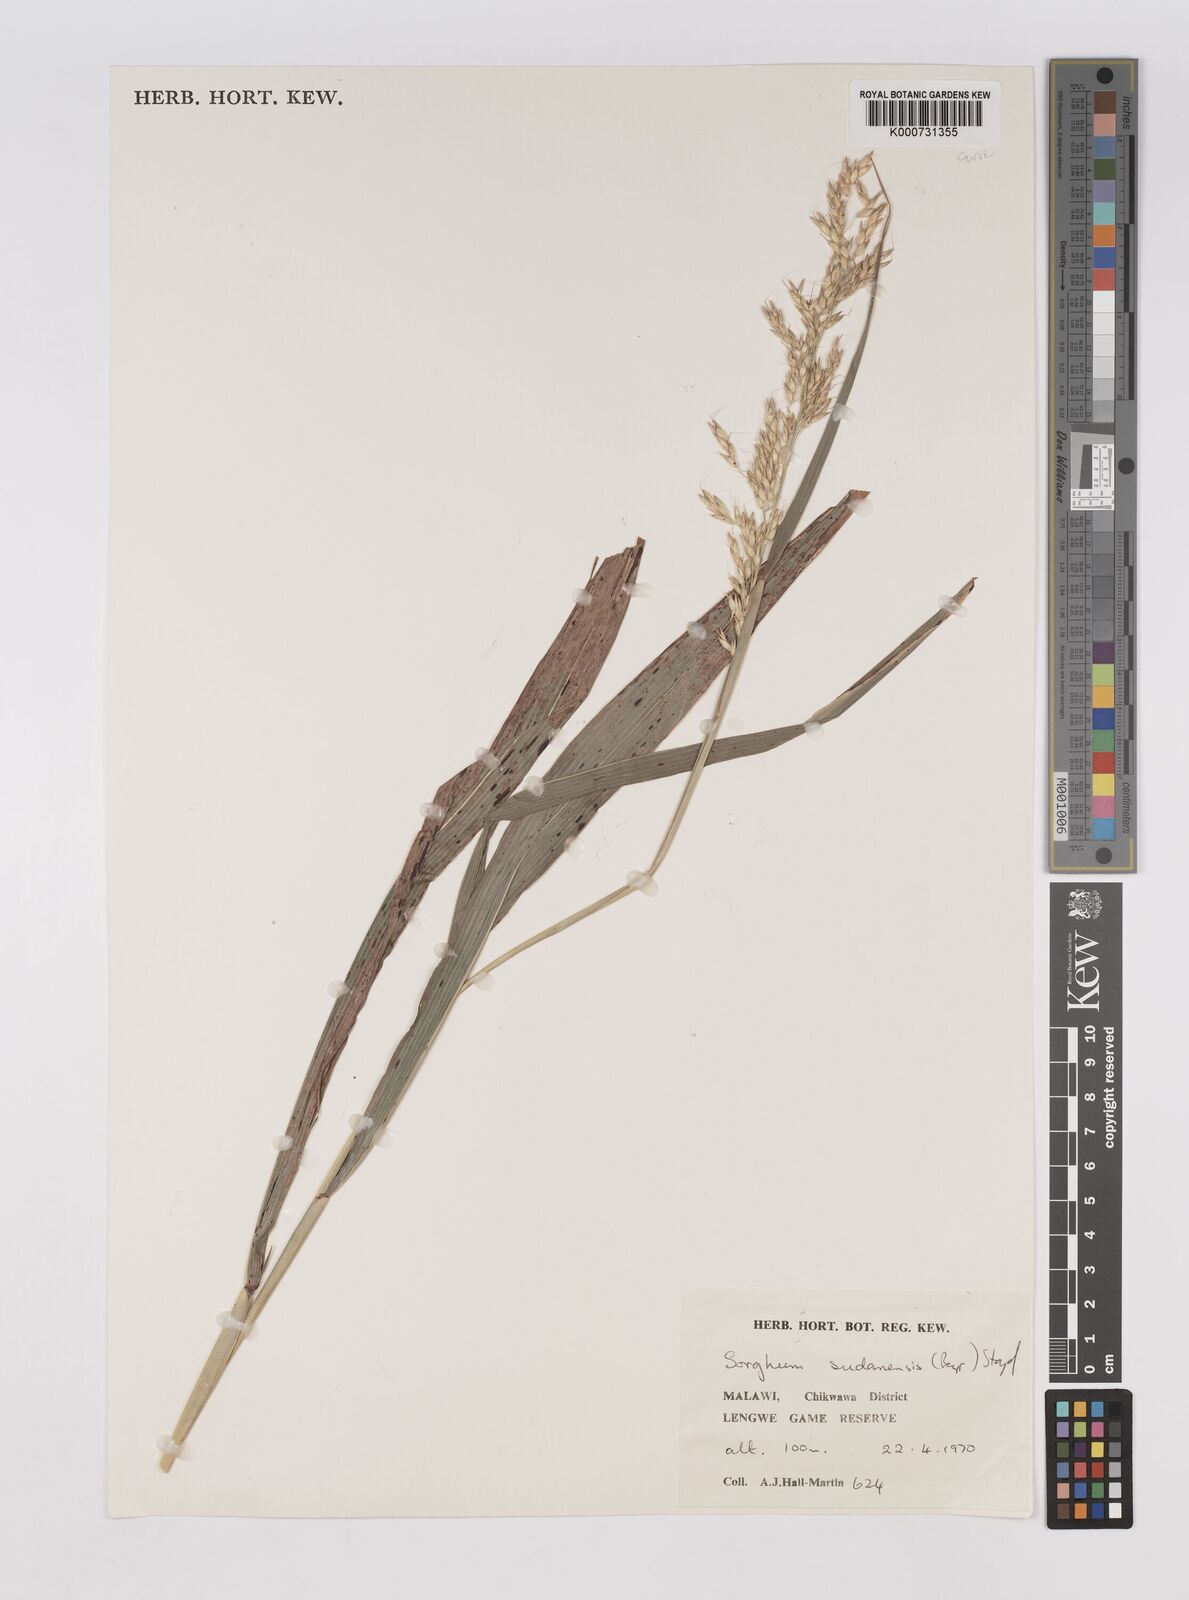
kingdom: Plantae
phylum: Tracheophyta
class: Liliopsida
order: Poales
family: Poaceae
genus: Sorghum
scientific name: Sorghum
